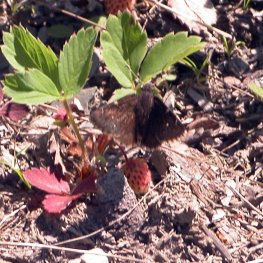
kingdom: Animalia
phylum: Arthropoda
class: Insecta
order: Lepidoptera
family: Hesperiidae
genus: Autochton
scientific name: Autochton
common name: Northern Cloudywing
